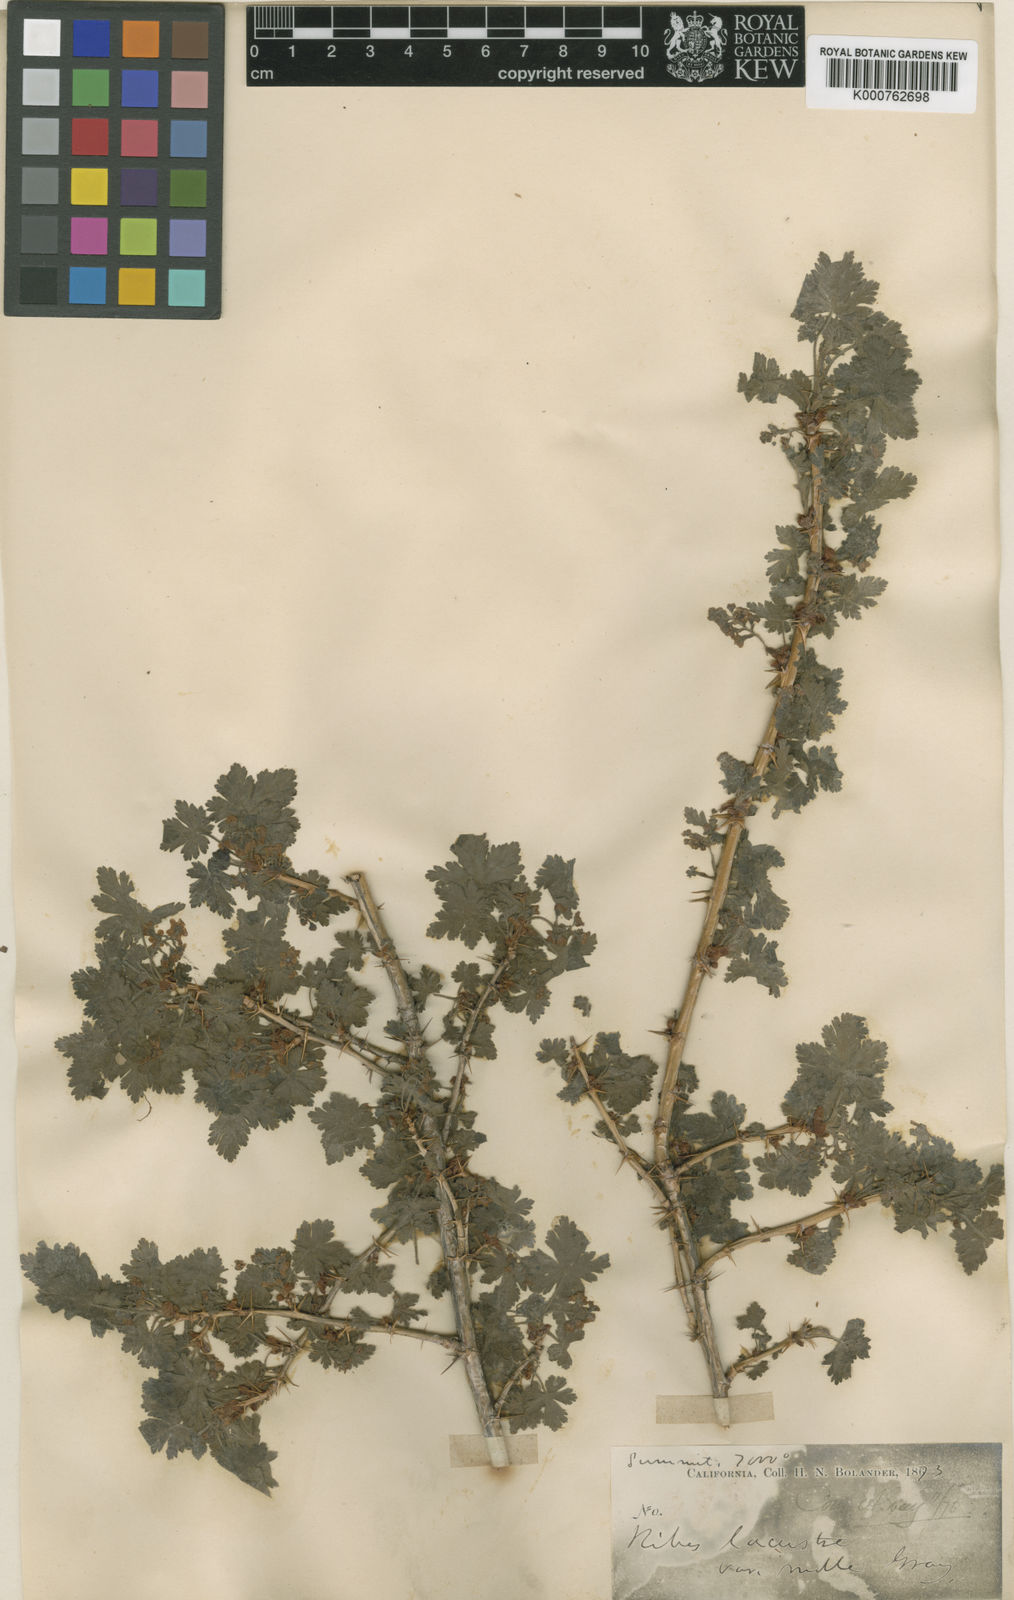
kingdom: Plantae
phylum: Tracheophyta
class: Magnoliopsida
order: Saxifragales
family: Grossulariaceae
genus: Ribes
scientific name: Ribes montigenum
